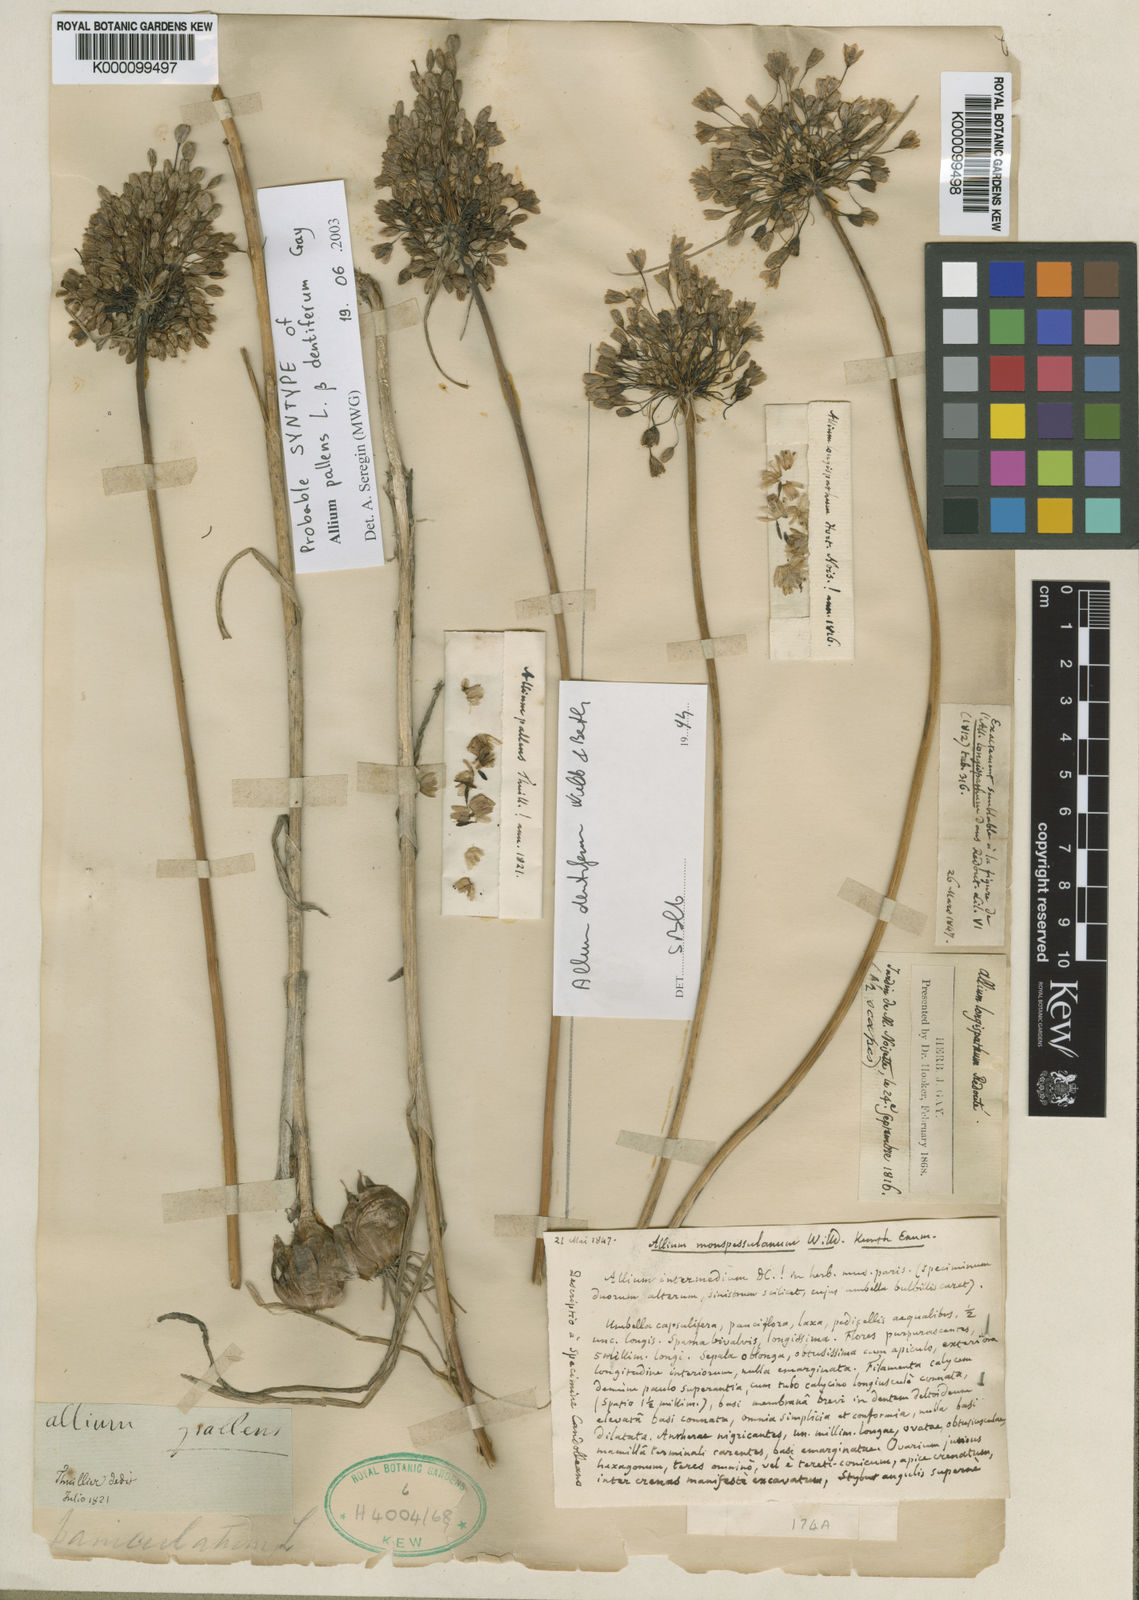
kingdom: Plantae
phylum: Tracheophyta
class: Liliopsida
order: Asparagales
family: Amaryllidaceae
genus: Allium
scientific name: Allium longispathum
